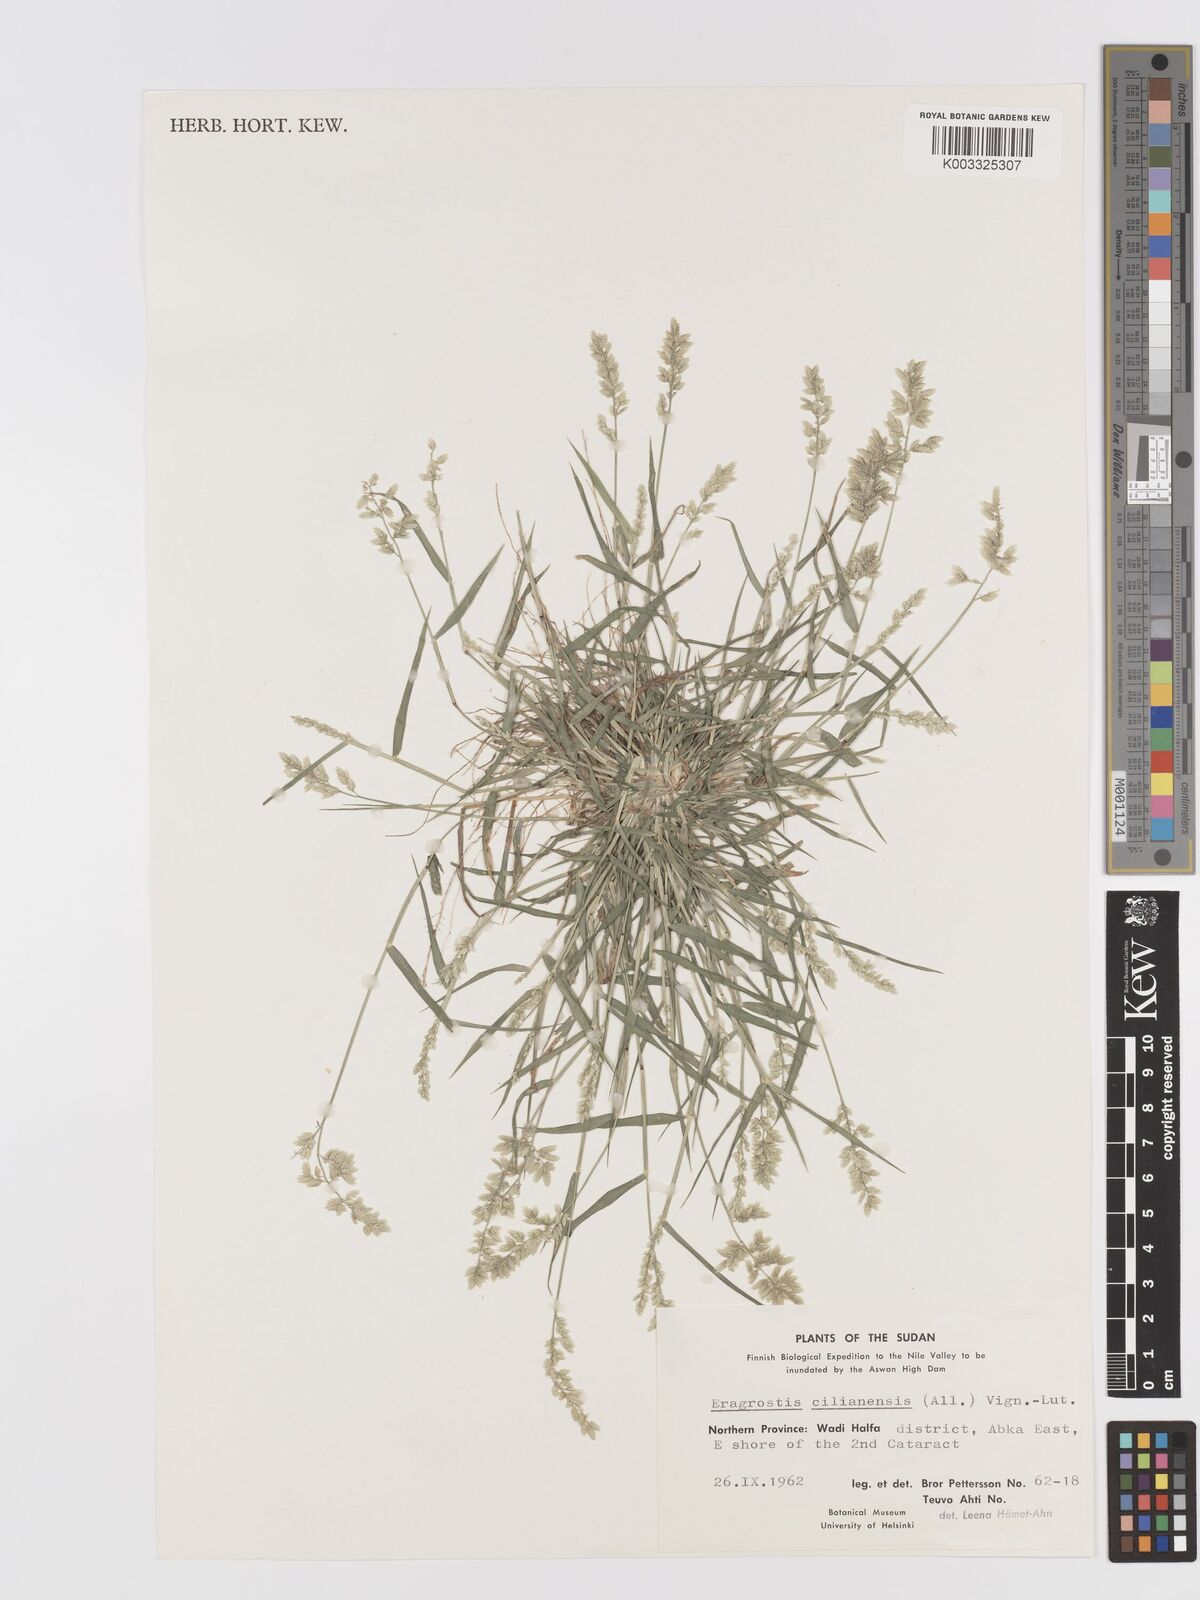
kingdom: Plantae
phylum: Tracheophyta
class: Liliopsida
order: Poales
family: Poaceae
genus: Eragrostis
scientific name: Eragrostis cilianensis
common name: Stinkgrass
